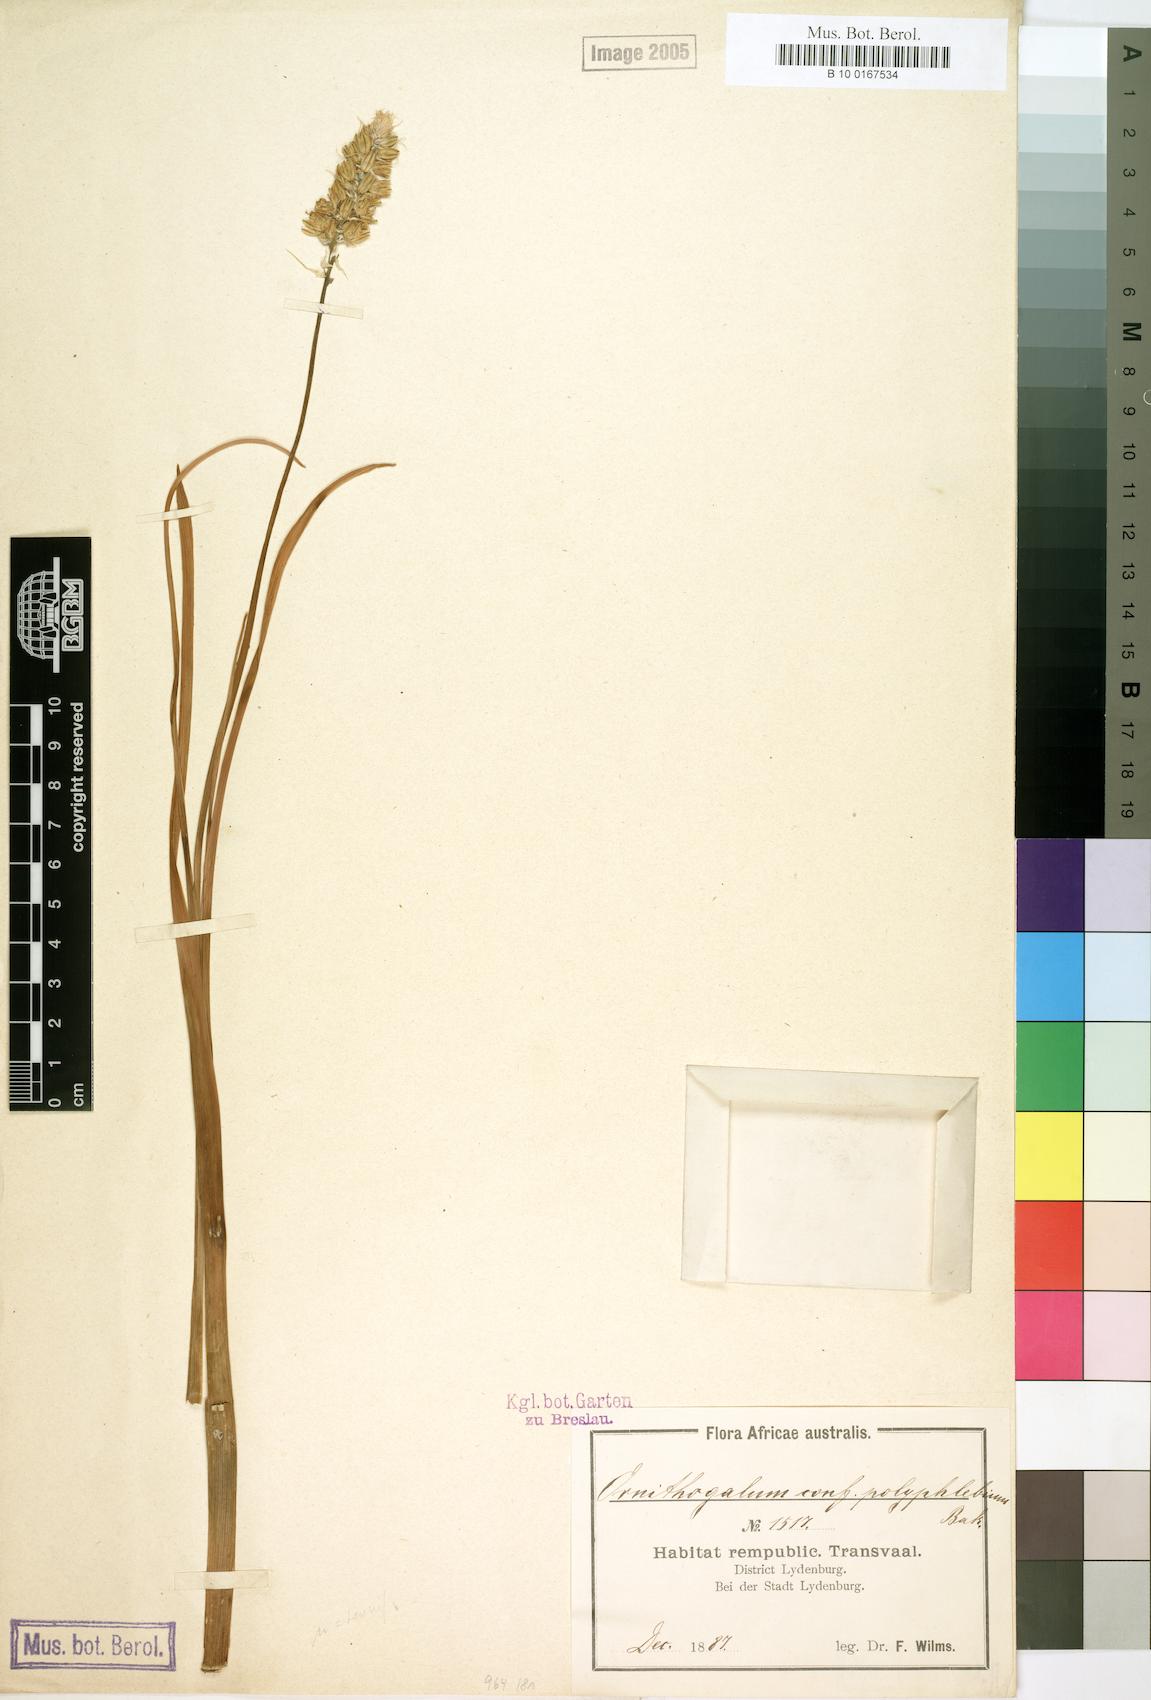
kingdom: Plantae
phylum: Tracheophyta
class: Liliopsida
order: Asparagales
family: Asparagaceae
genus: Albuca
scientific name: Albuca prasina
